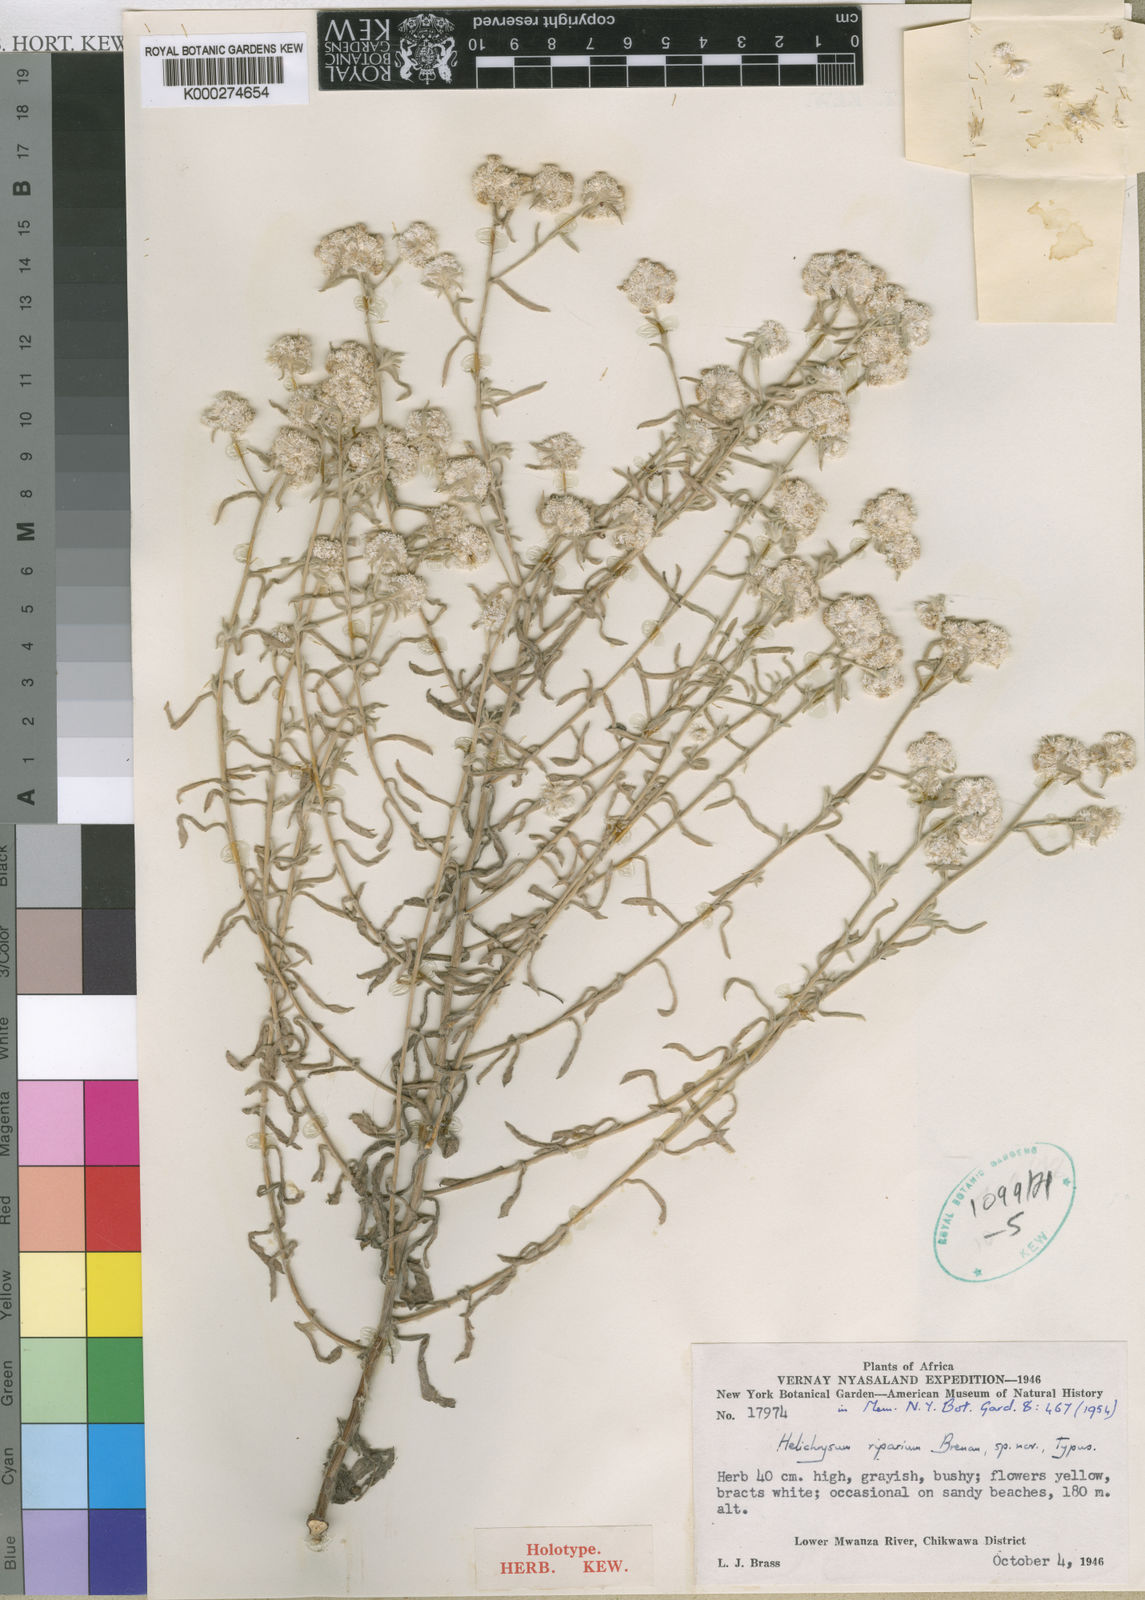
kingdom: Plantae
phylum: Tracheophyta
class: Magnoliopsida
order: Asterales
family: Asteraceae
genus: Helichrysum
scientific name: Helichrysum riparium
